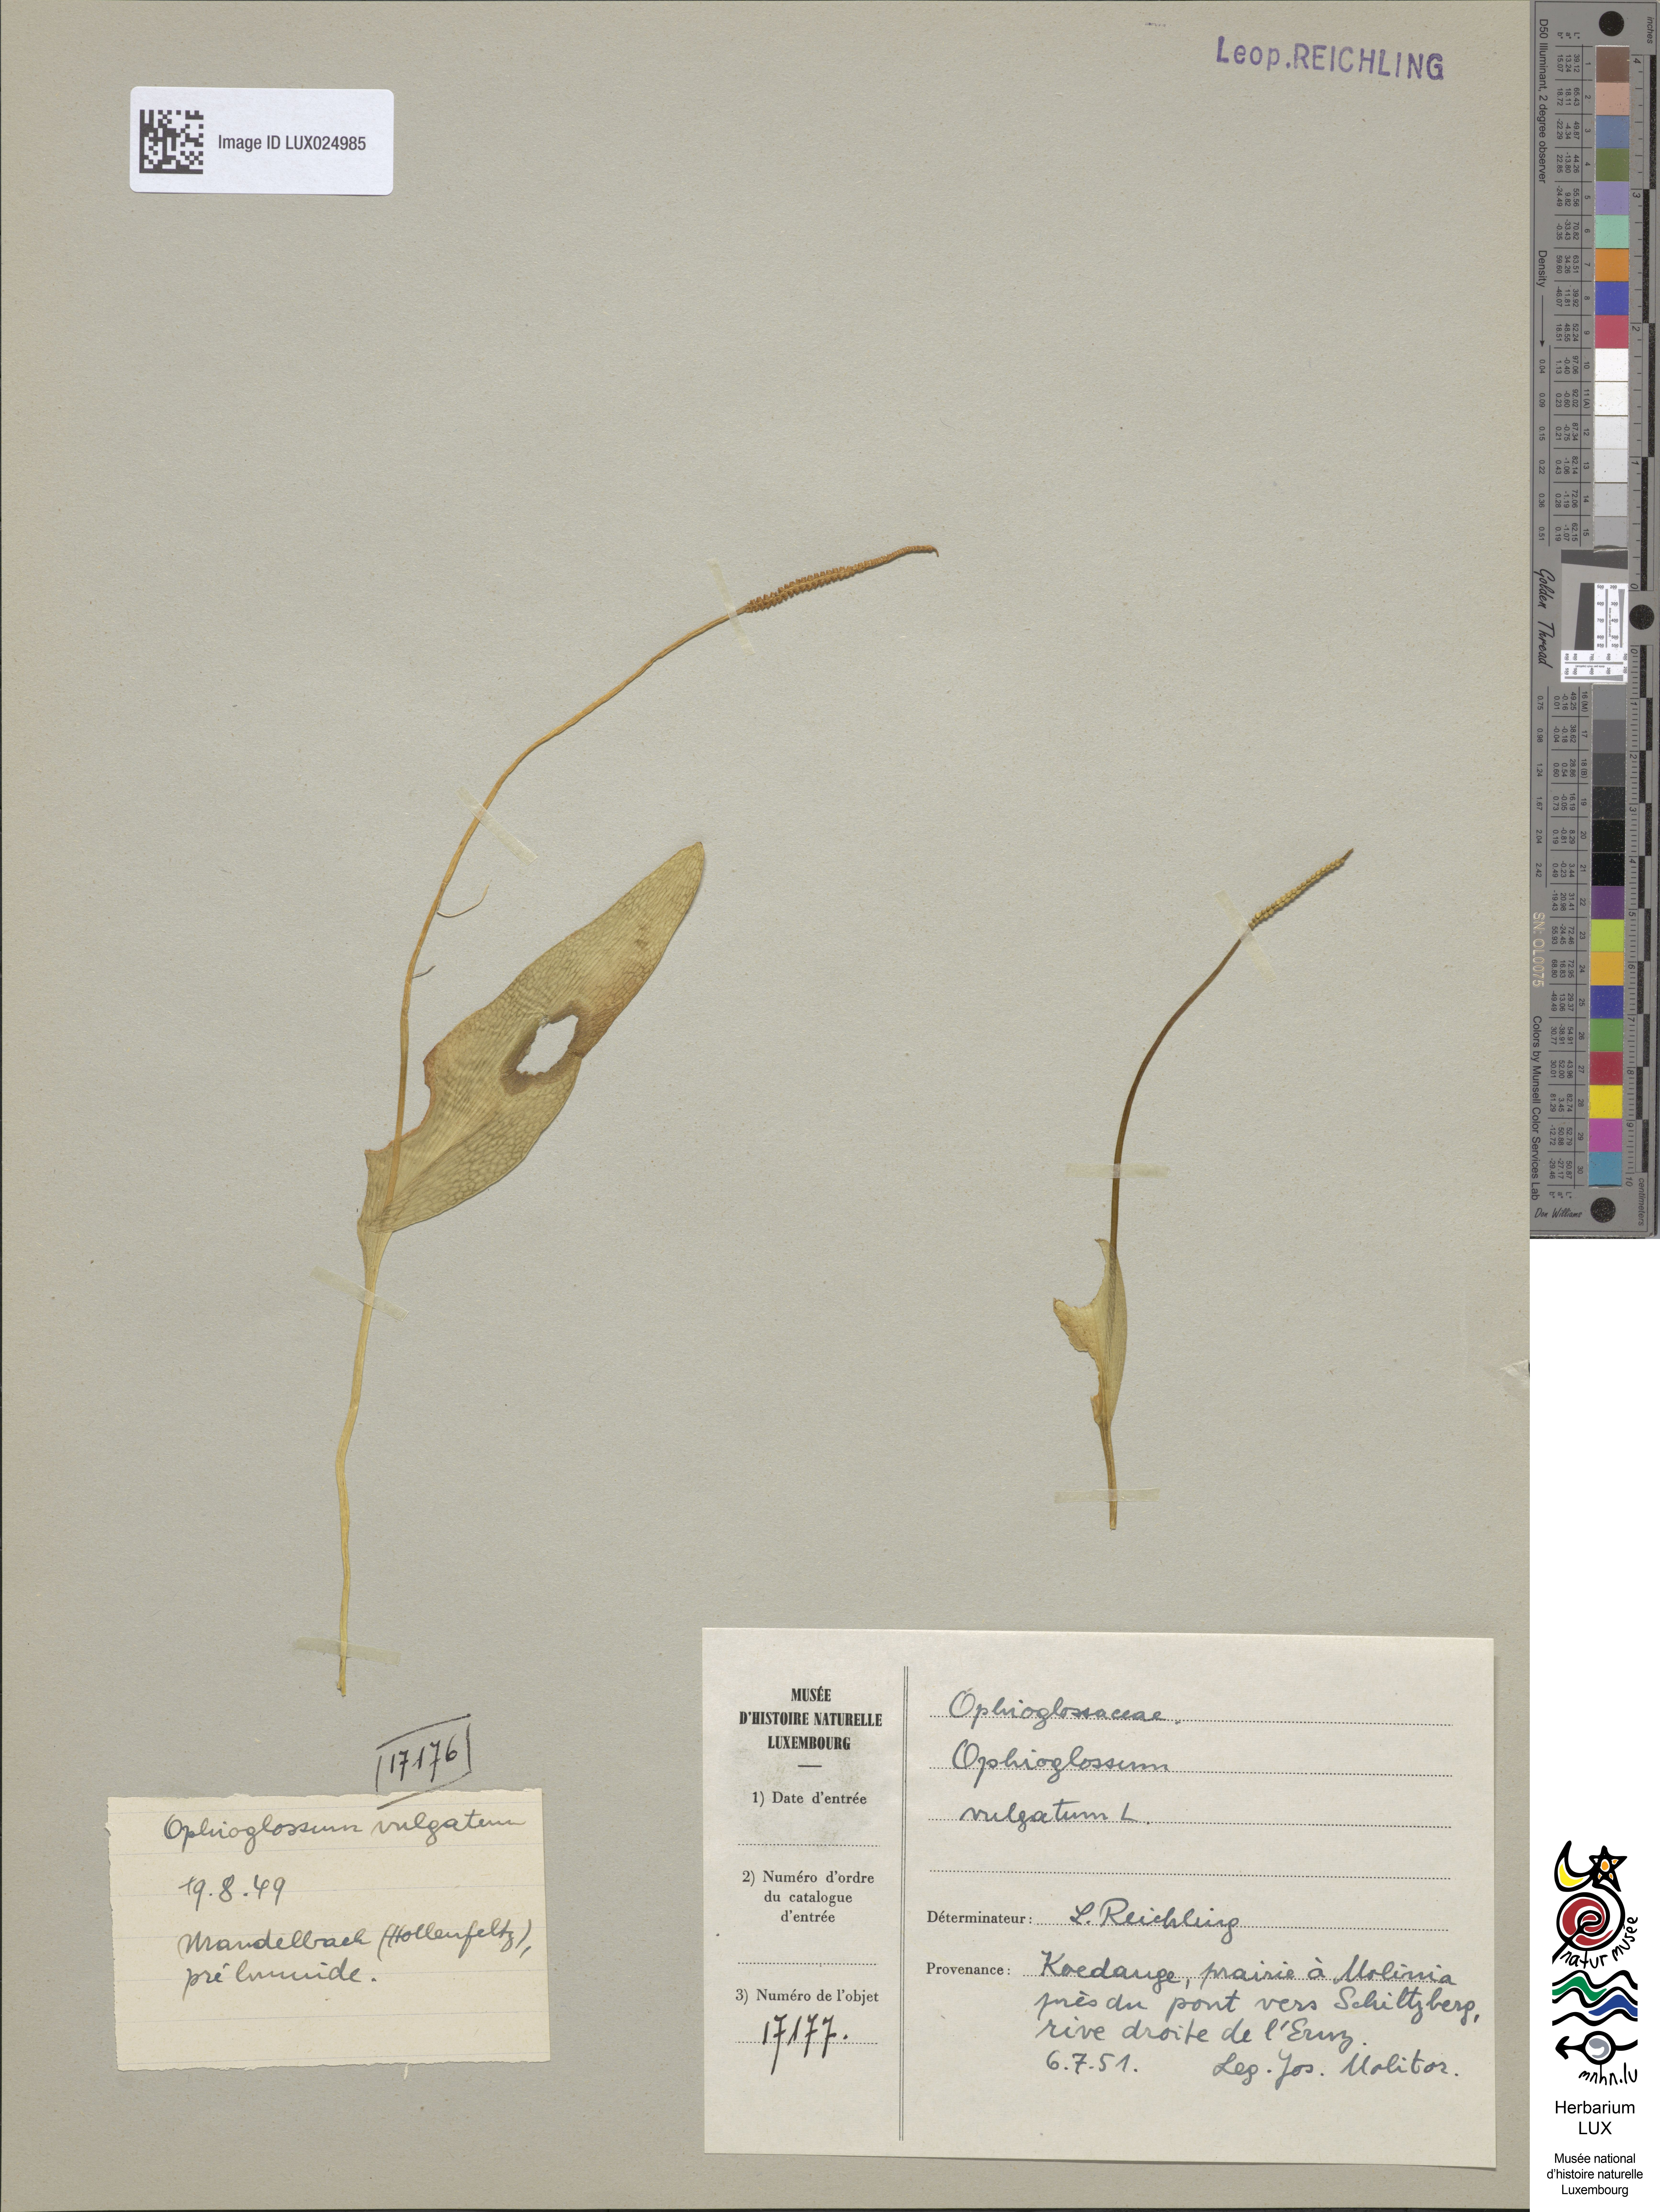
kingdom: Plantae
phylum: Tracheophyta
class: Polypodiopsida
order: Ophioglossales
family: Ophioglossaceae
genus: Ophioglossum
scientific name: Ophioglossum vulgatum
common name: Adder's-tongue
